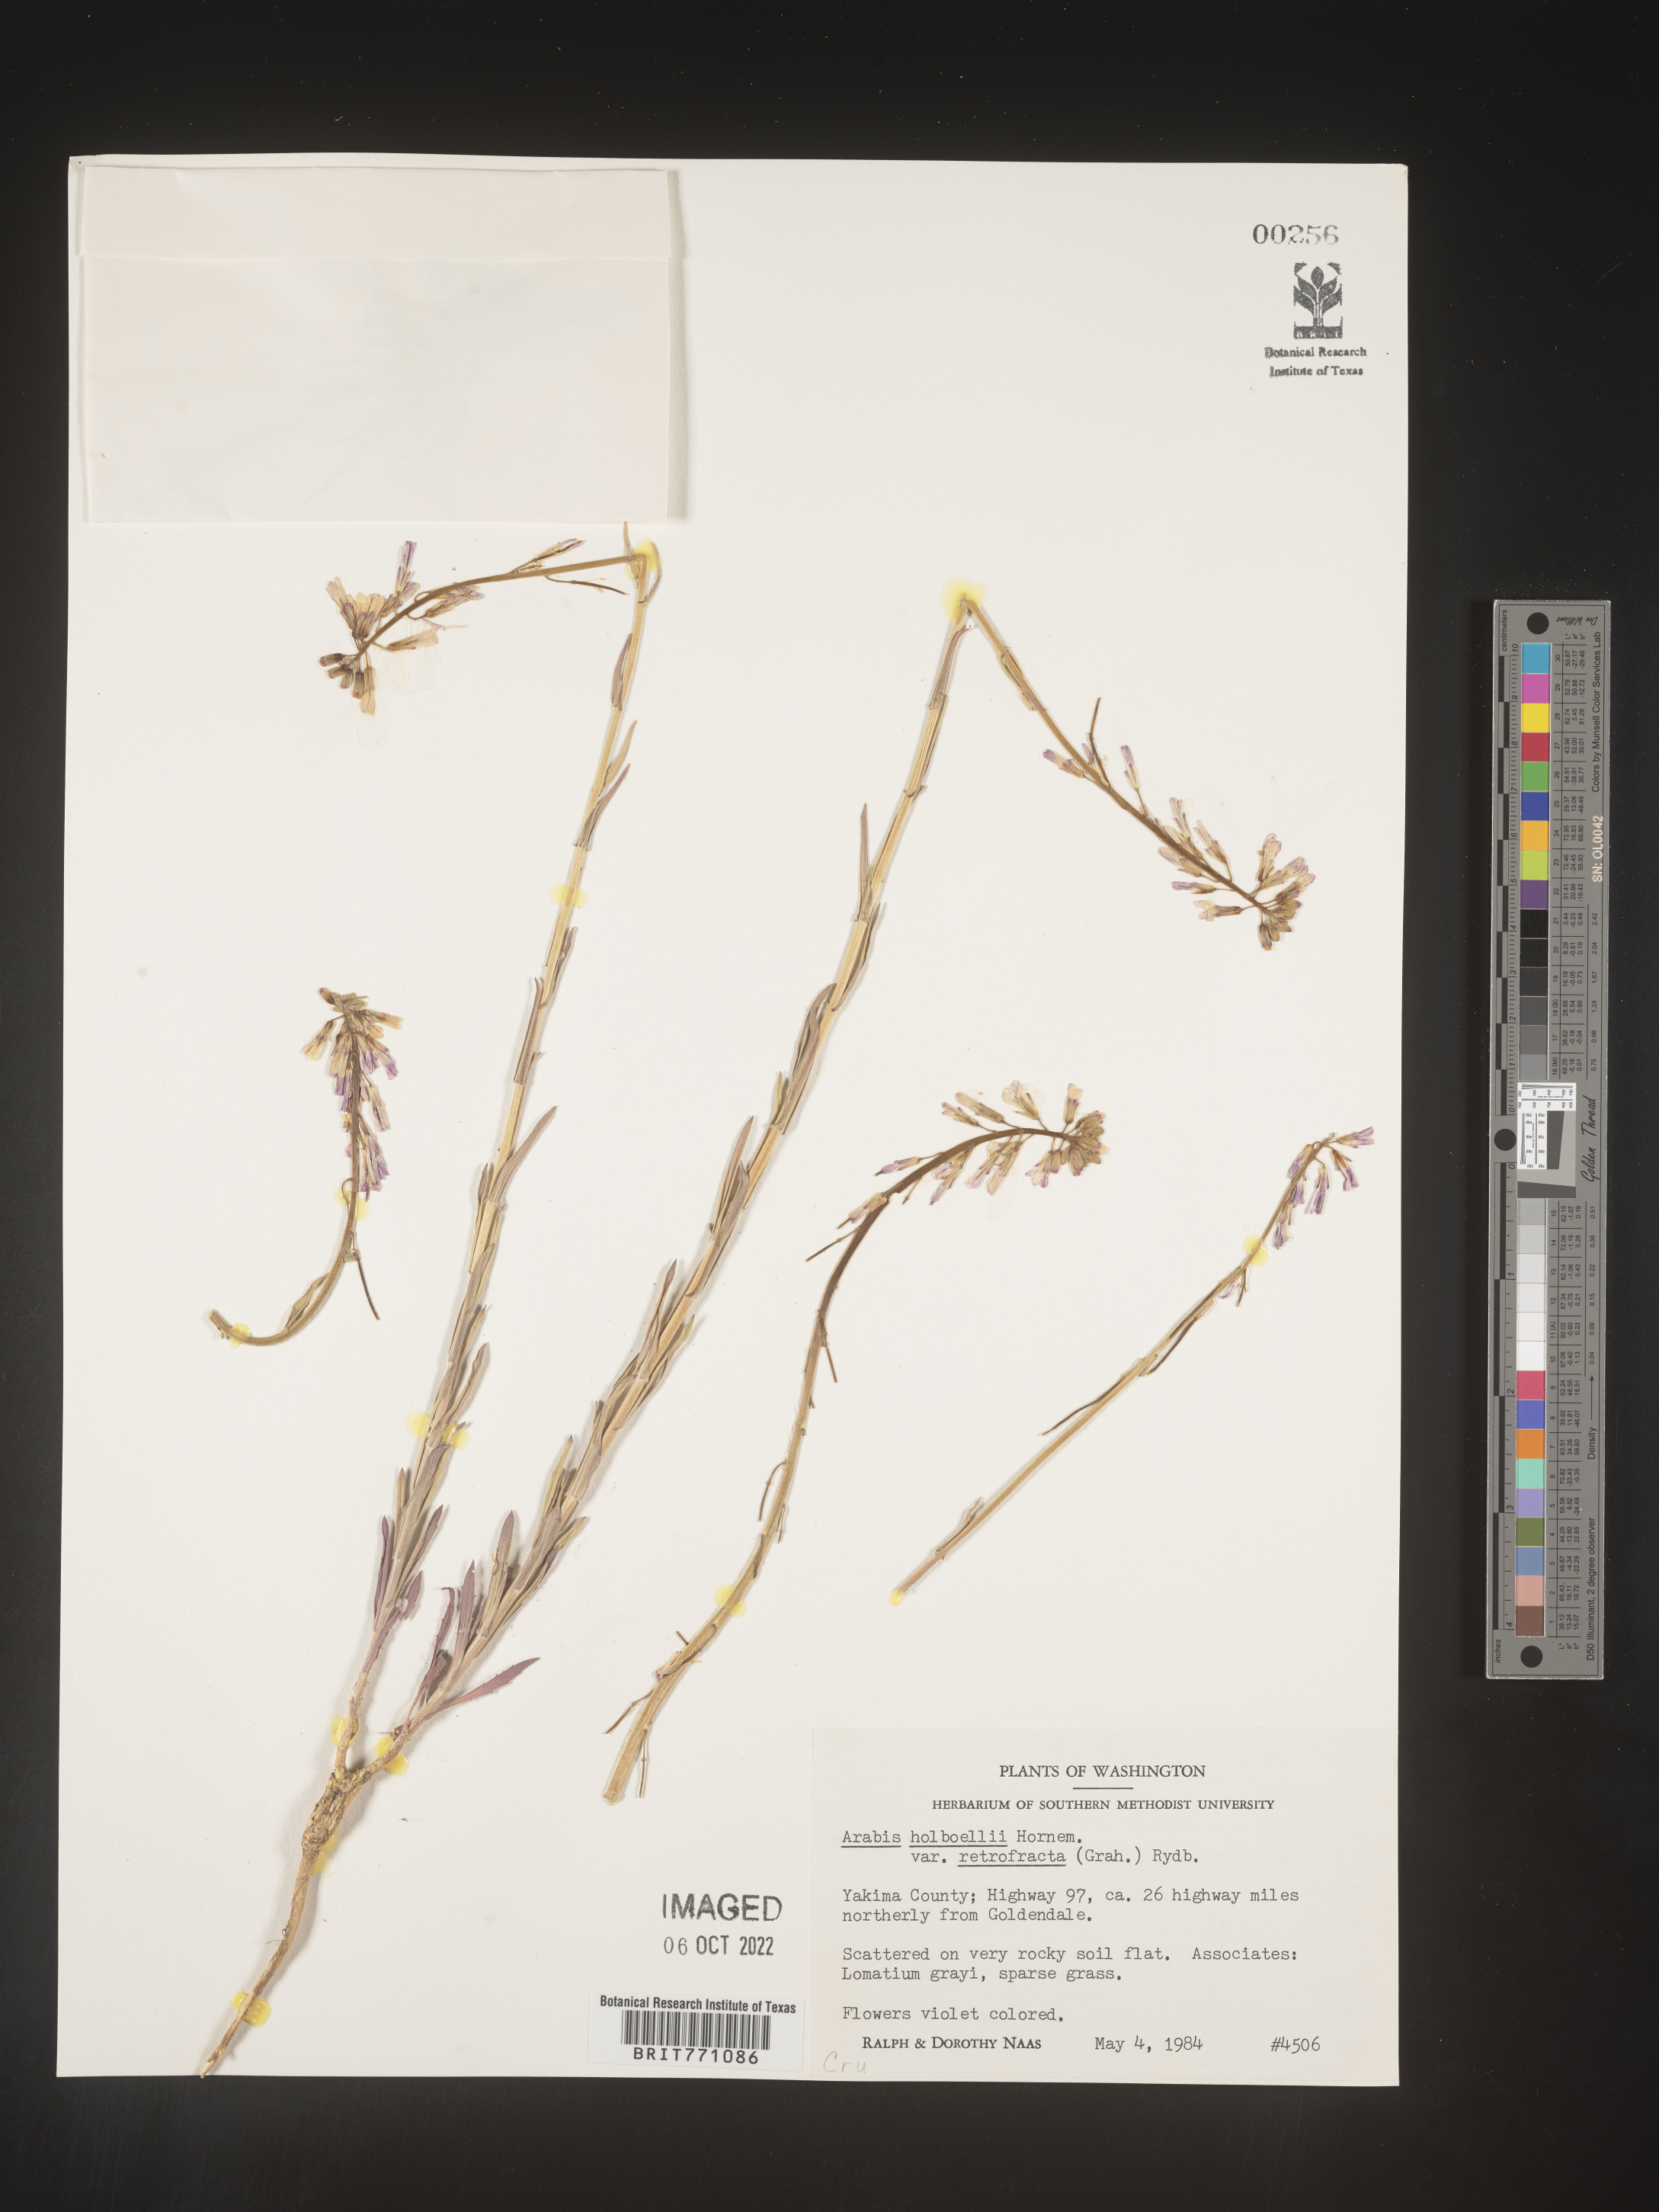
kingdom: Plantae
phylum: Tracheophyta
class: Magnoliopsida
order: Brassicales
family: Brassicaceae
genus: Boechera
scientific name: Boechera holboellii
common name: Holboell's rockcress
